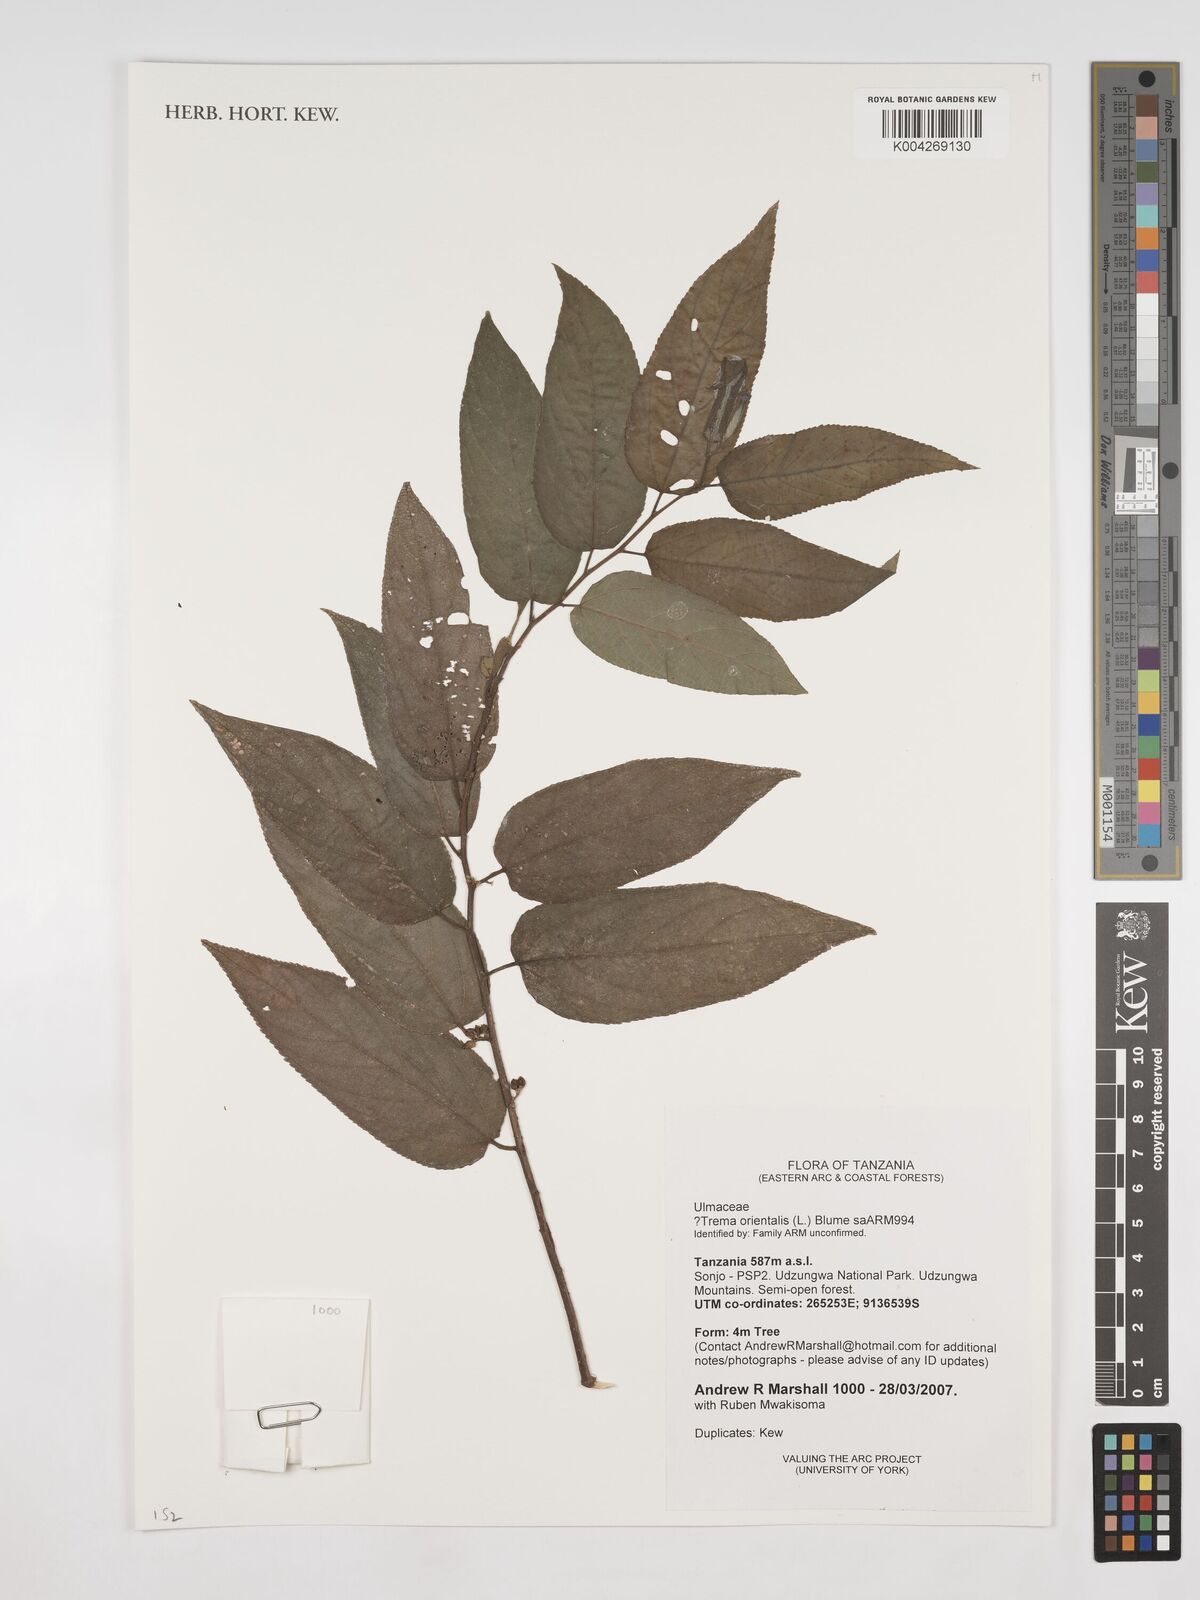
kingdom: Plantae
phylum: Tracheophyta
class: Magnoliopsida
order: Rosales
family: Cannabaceae
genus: Trema
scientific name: Trema orientale
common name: Indian charcoal tree
